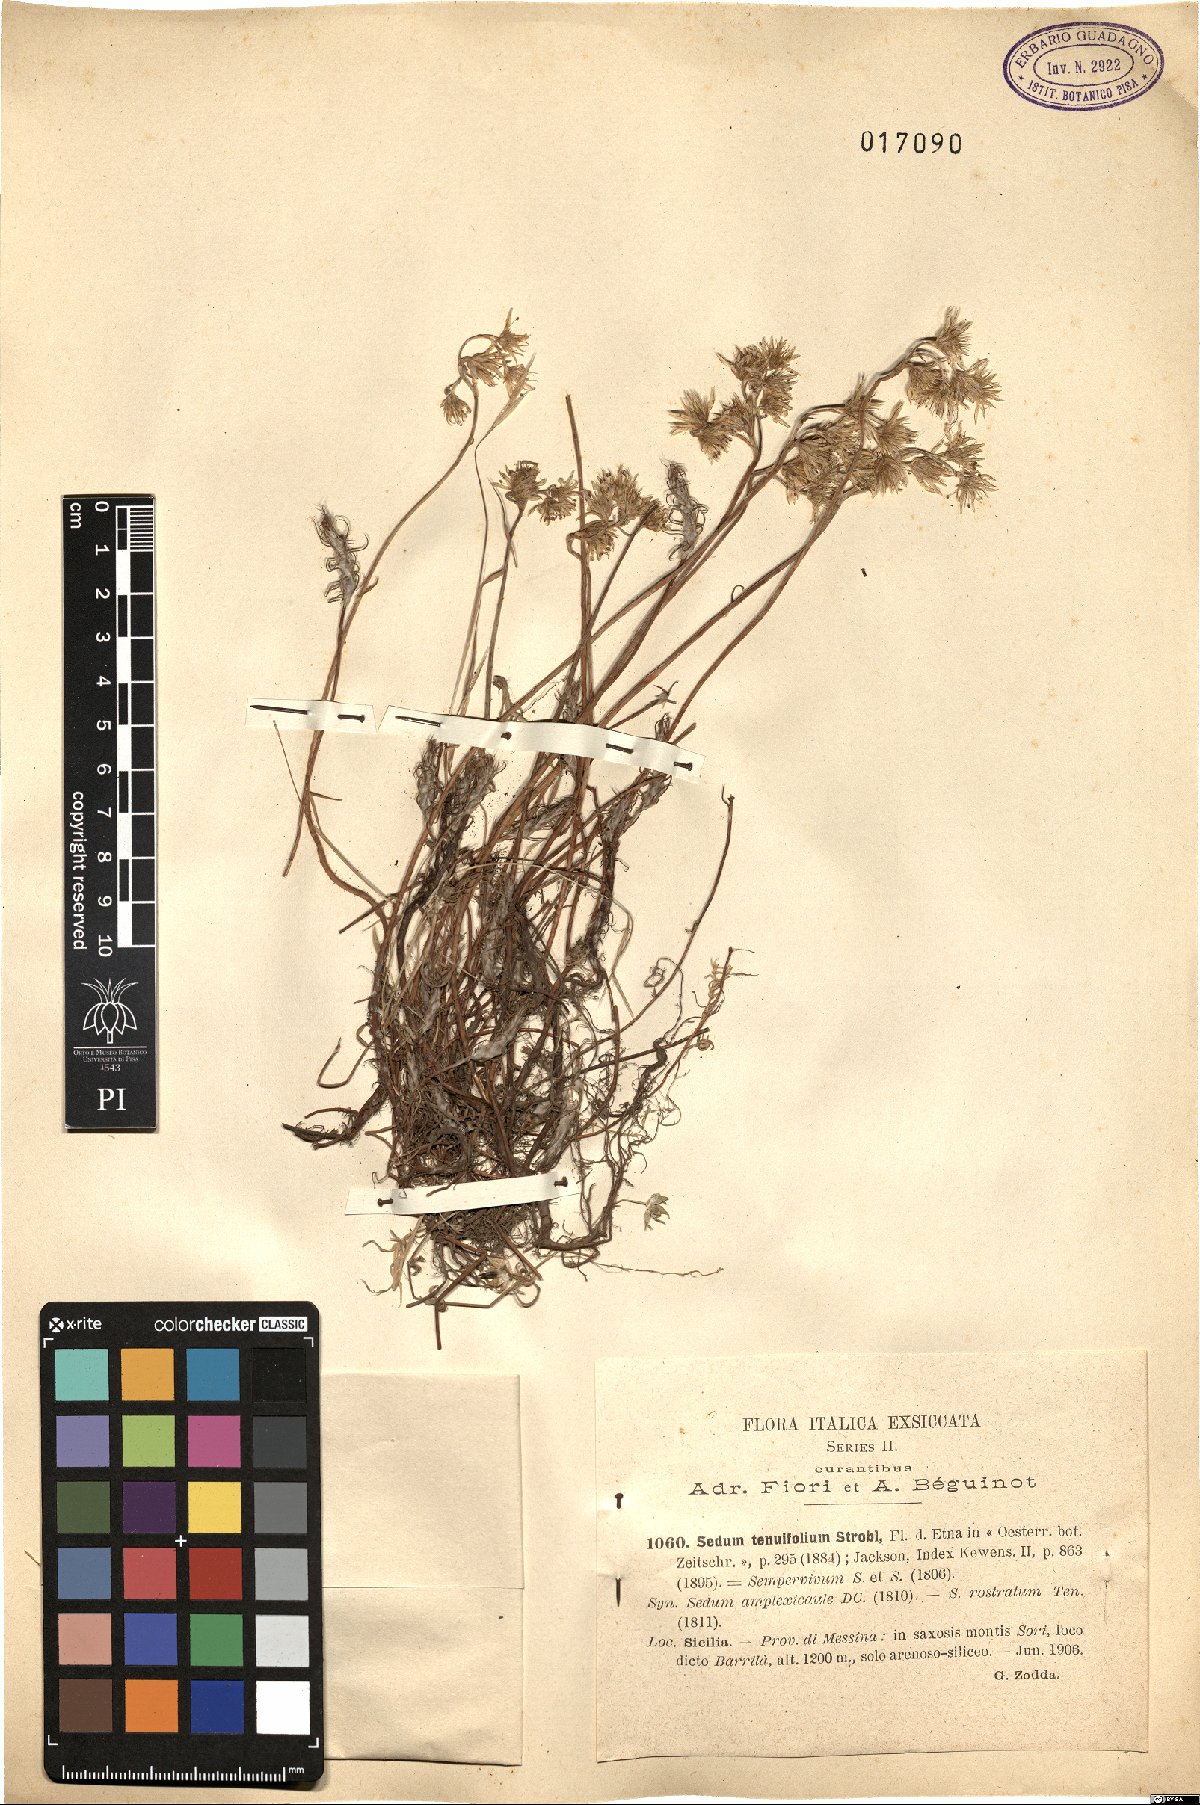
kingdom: Plantae
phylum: Tracheophyta
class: Magnoliopsida
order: Saxifragales
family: Crassulaceae
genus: Petrosedum
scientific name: Petrosedum tenuifolium
